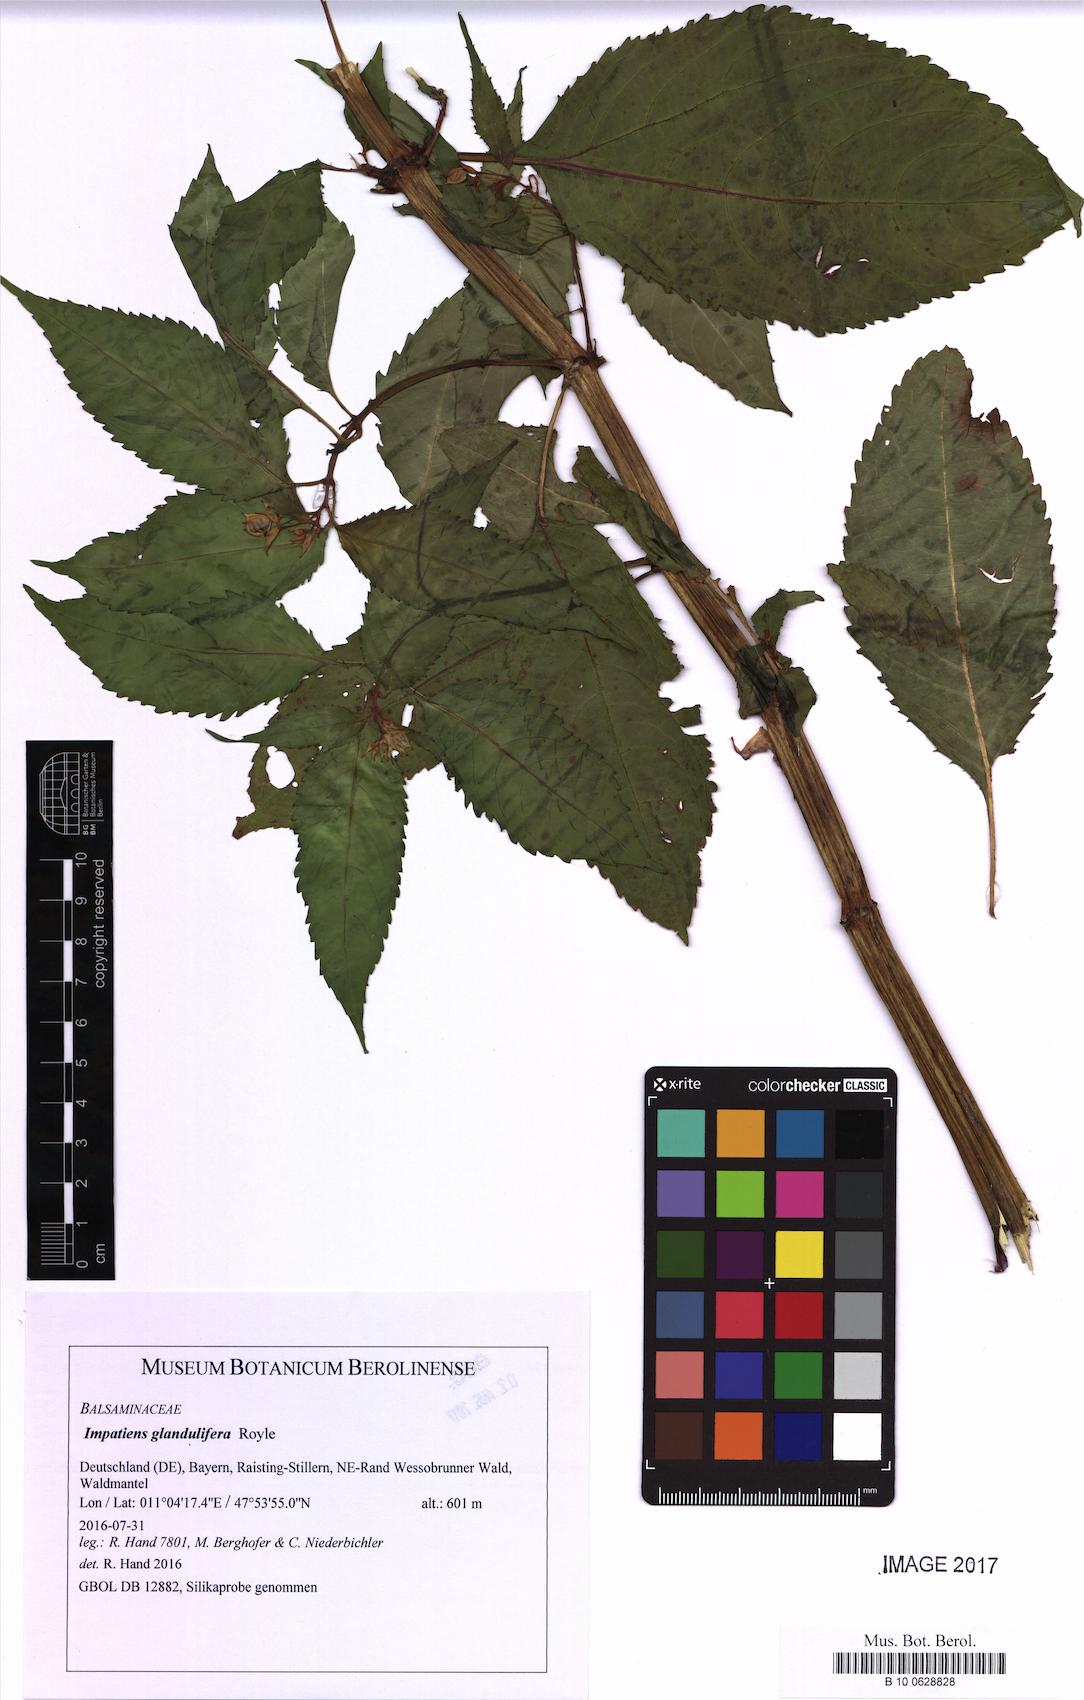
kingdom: Plantae
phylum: Tracheophyta
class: Magnoliopsida
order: Ericales
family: Balsaminaceae
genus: Impatiens
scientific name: Impatiens glandulifera
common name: Himalayan balsam
